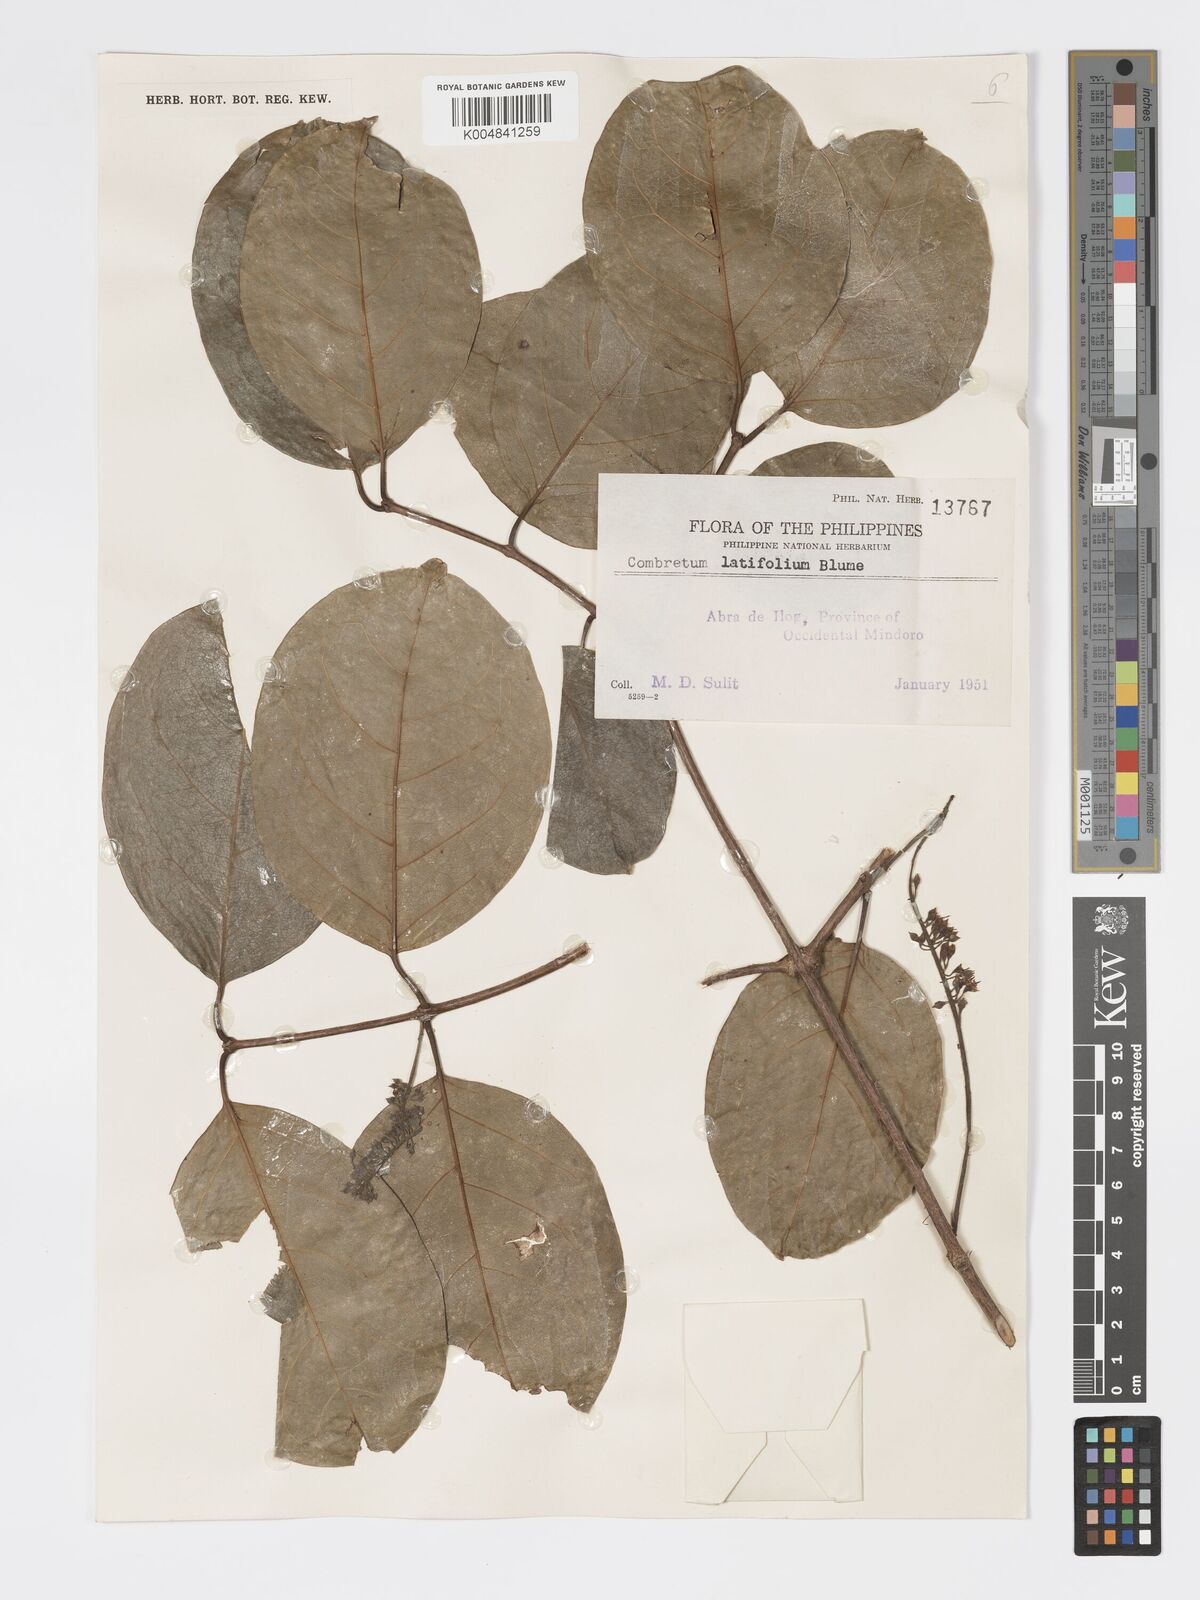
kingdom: Plantae
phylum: Tracheophyta
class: Magnoliopsida
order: Myrtales
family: Combretaceae
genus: Combretum
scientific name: Combretum
